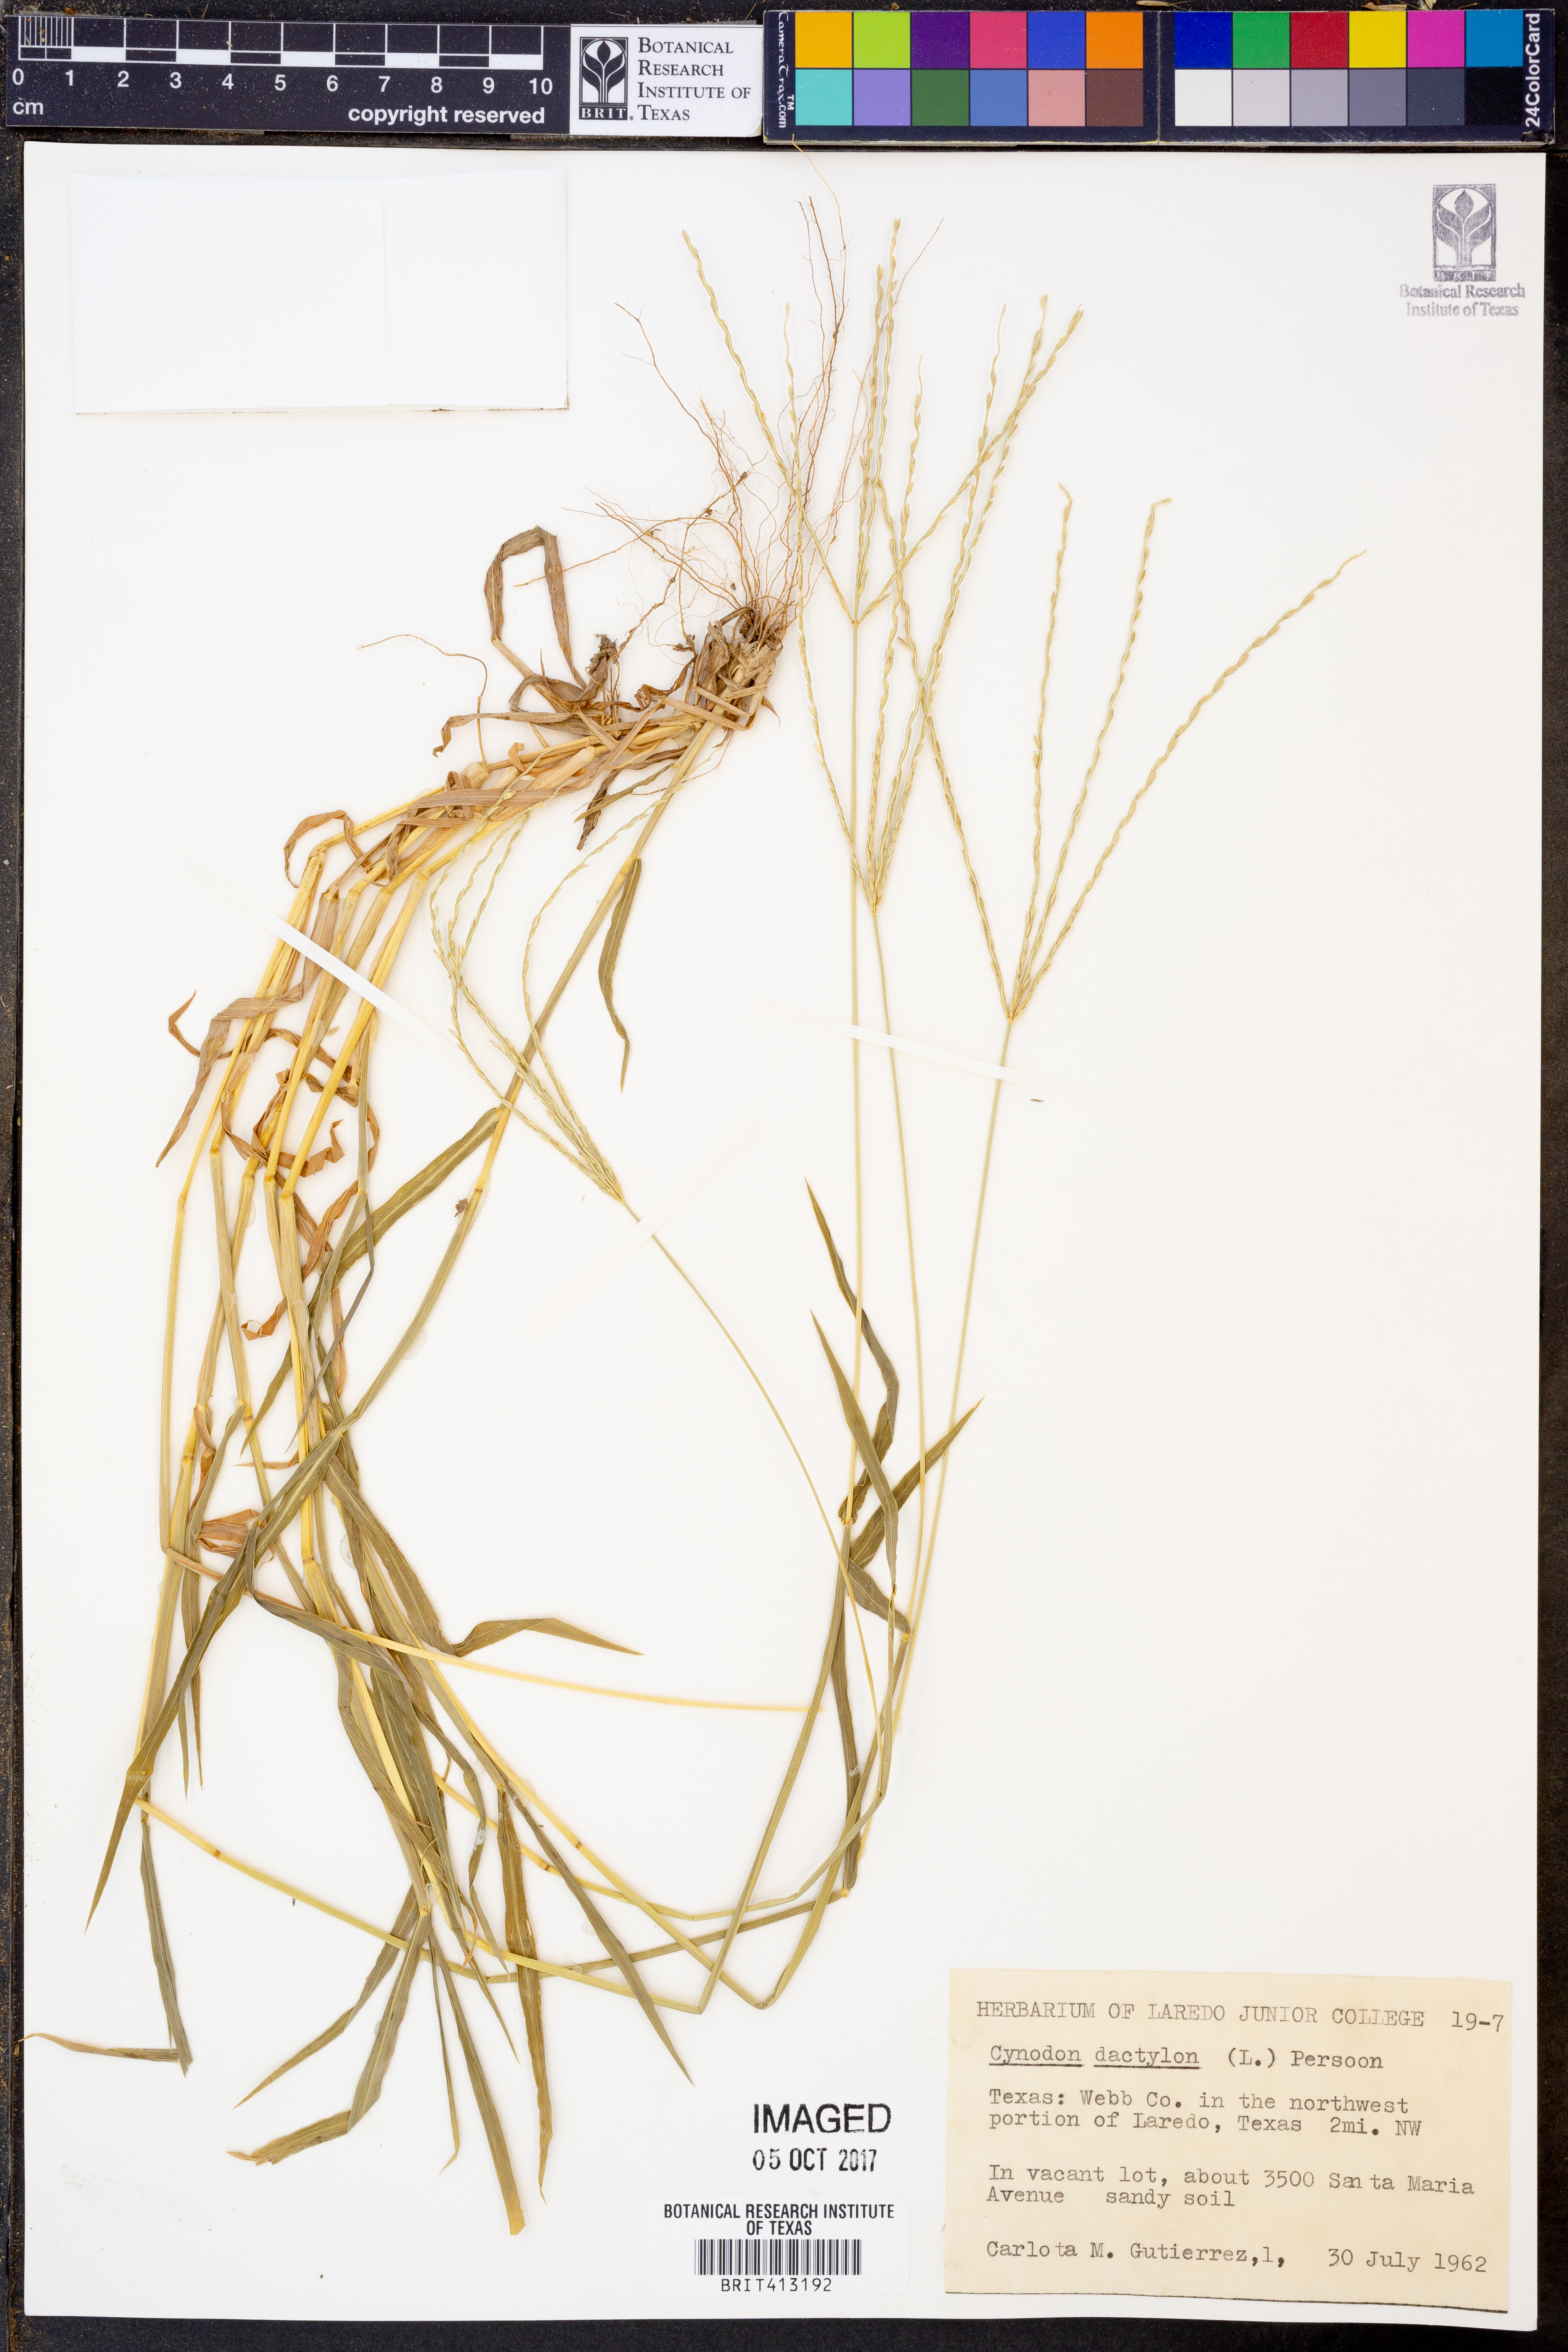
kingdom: Plantae
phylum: Tracheophyta
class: Liliopsida
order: Poales
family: Poaceae
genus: Cynodon
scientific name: Cynodon dactylon
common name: Bermuda grass
